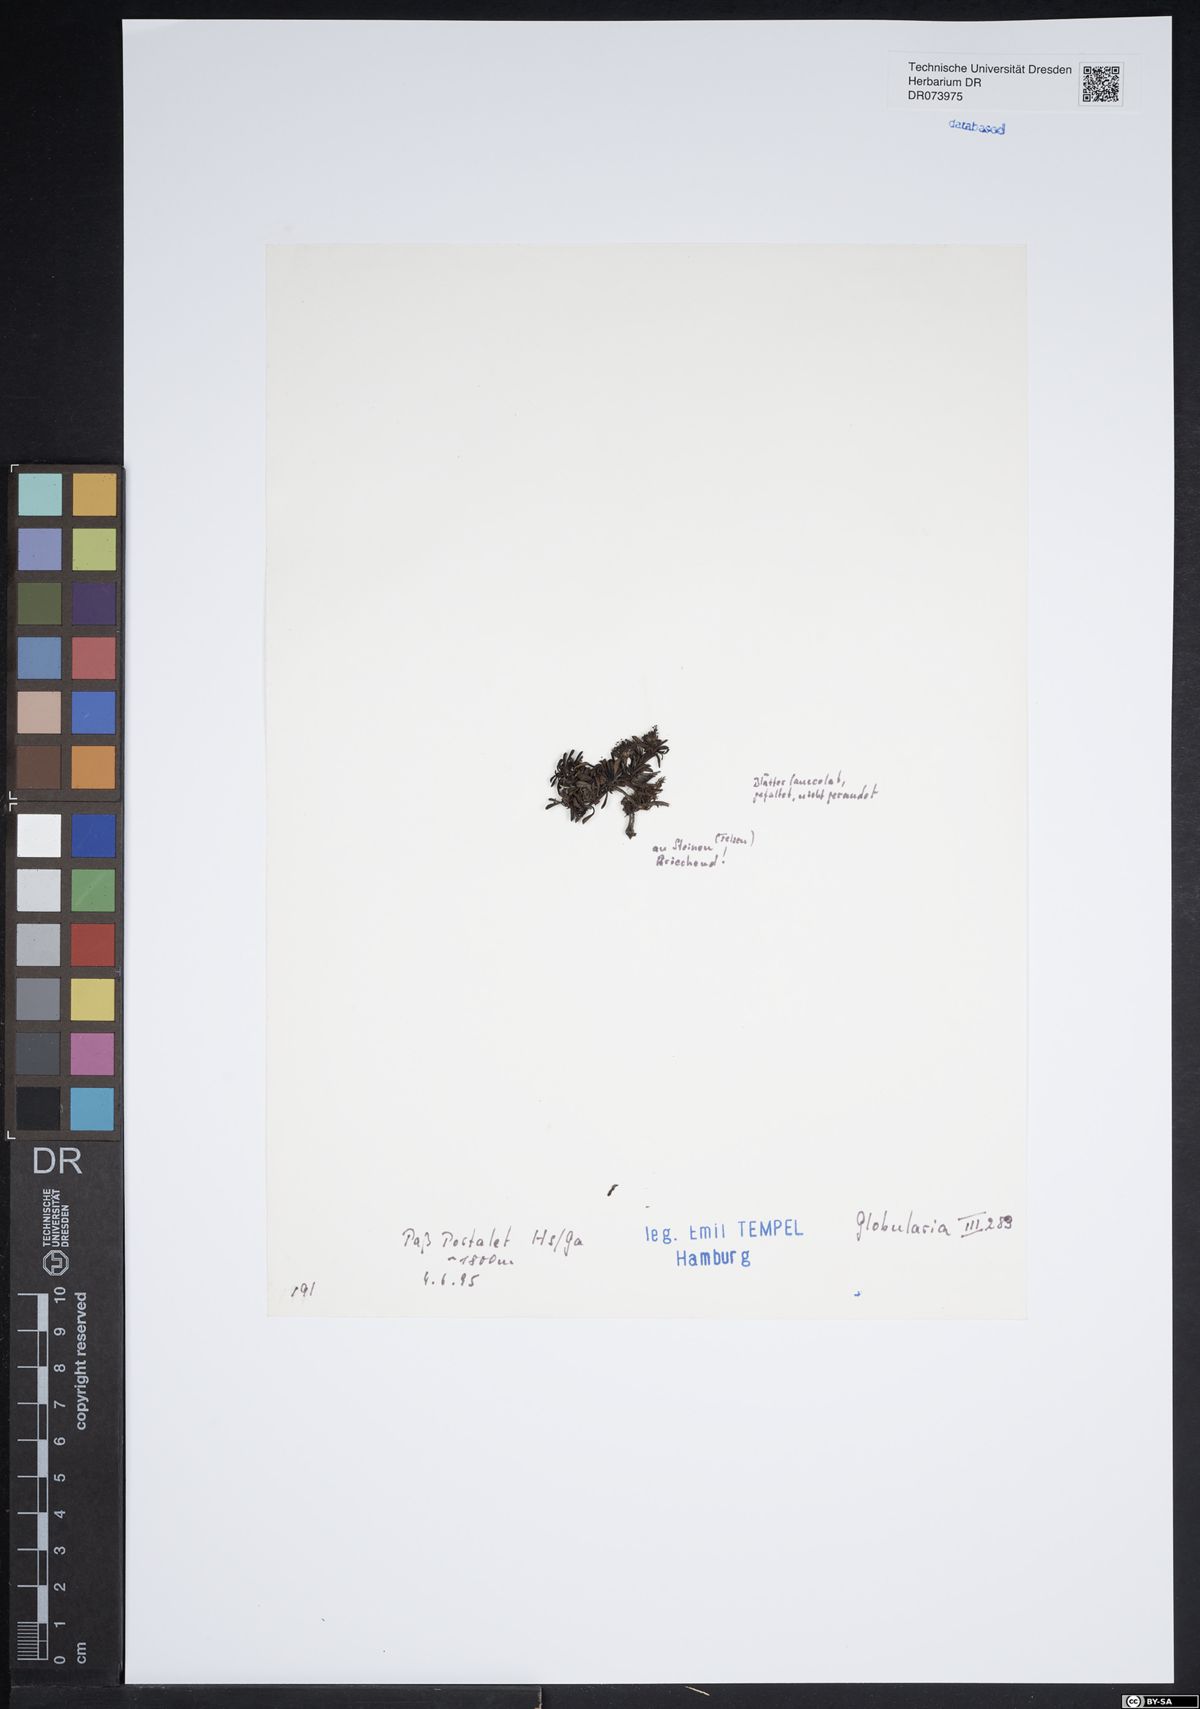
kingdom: Plantae
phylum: Tracheophyta
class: Magnoliopsida
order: Lamiales
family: Plantaginaceae
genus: Globularia
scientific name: Globularia
